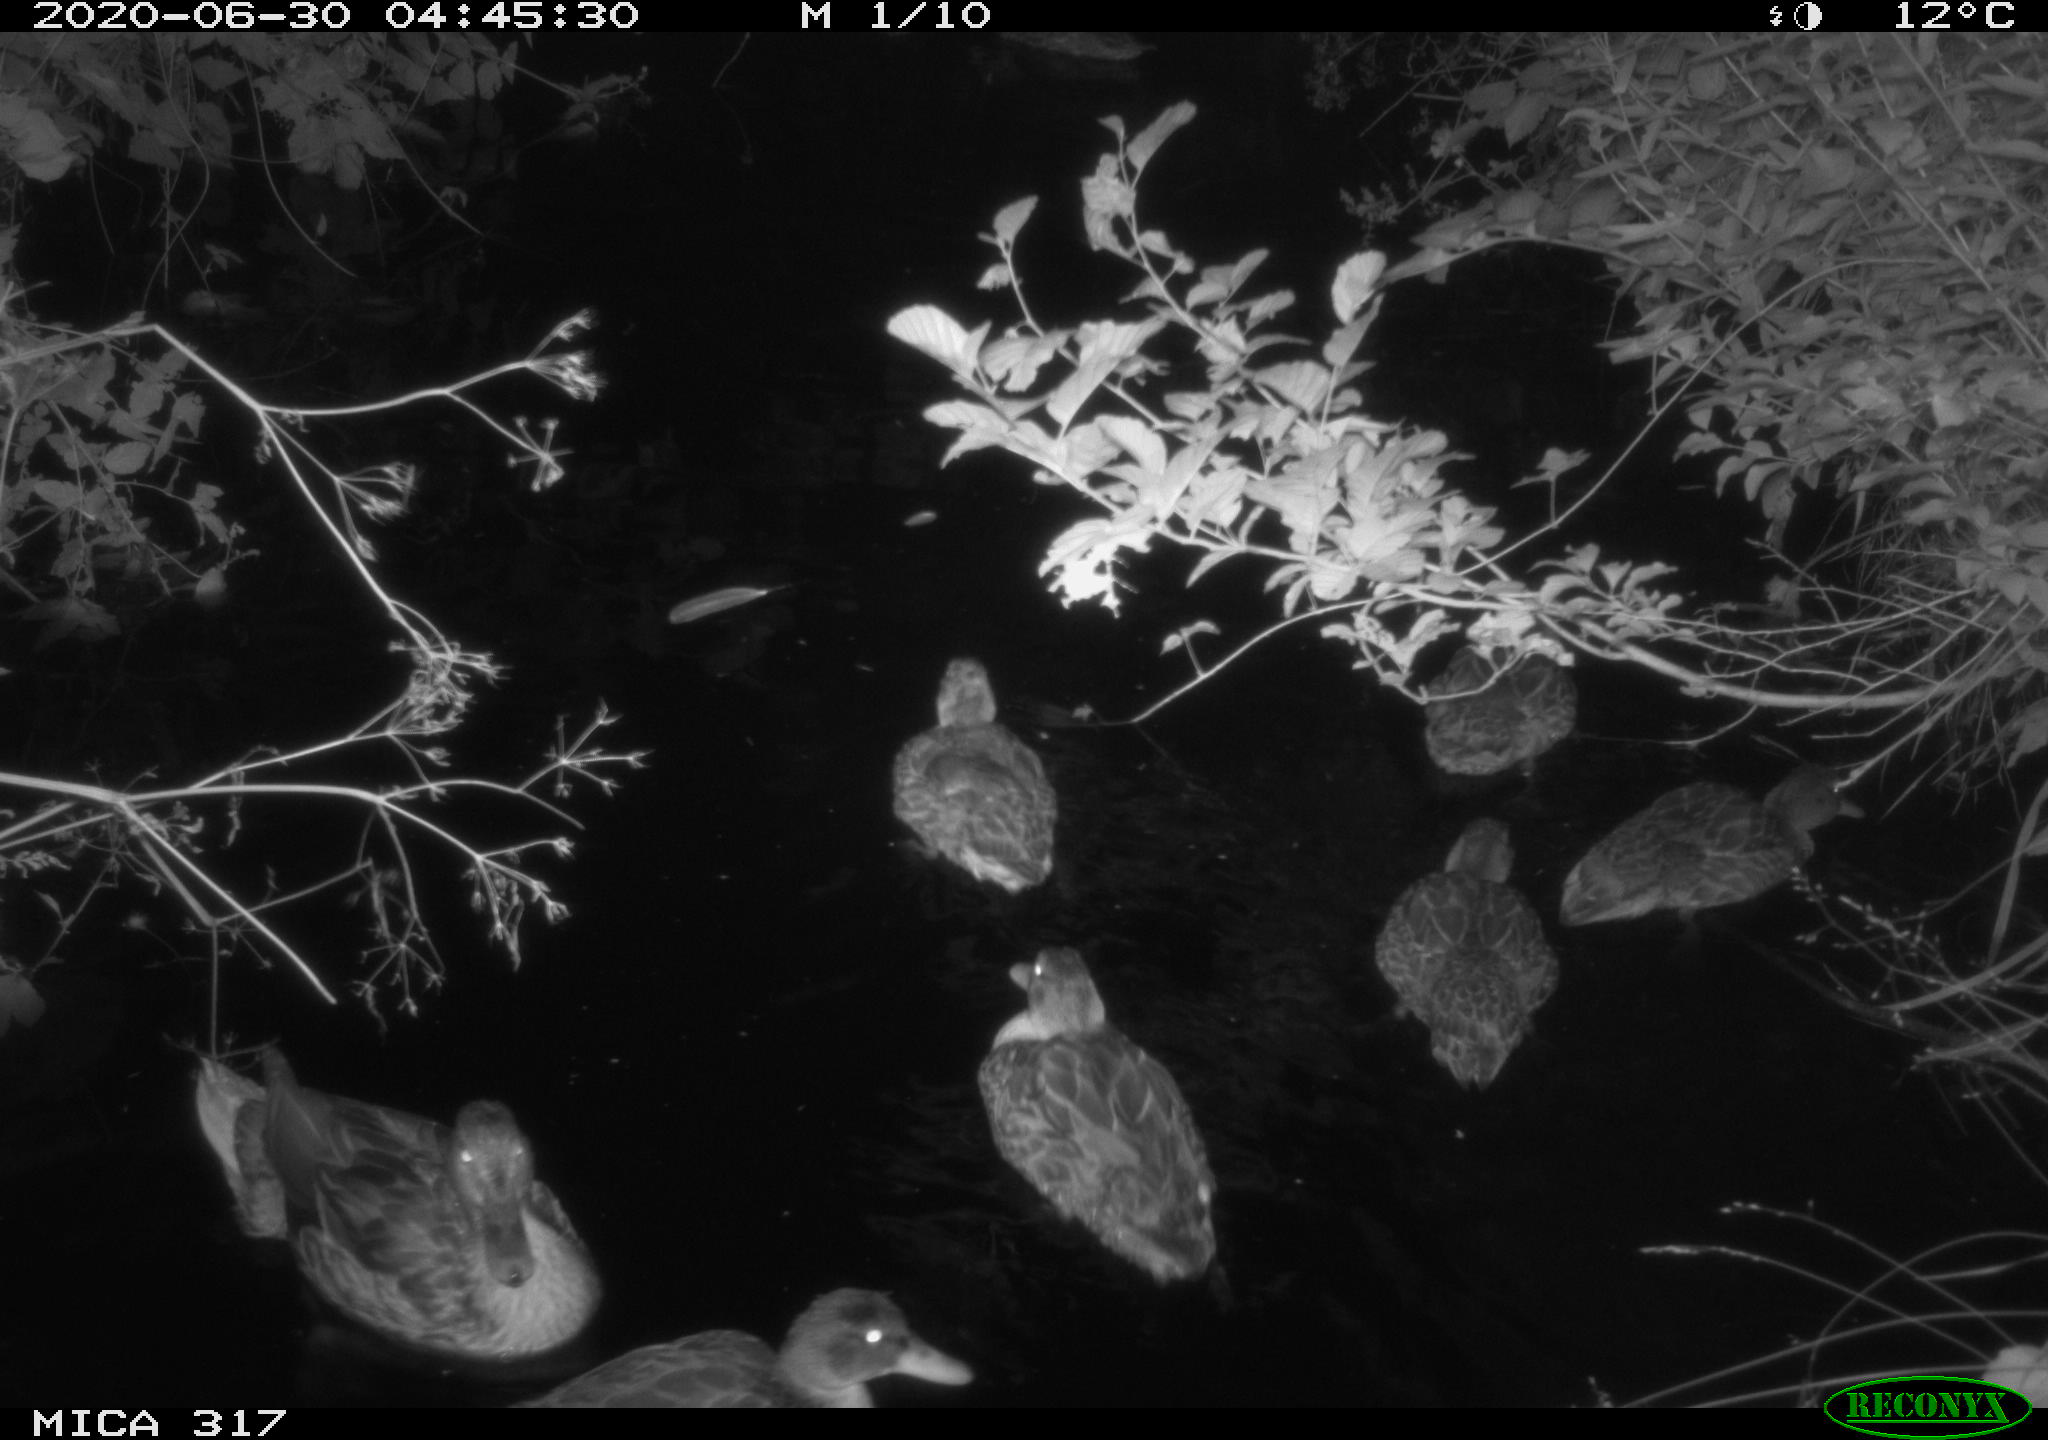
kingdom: Animalia
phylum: Chordata
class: Aves
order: Anseriformes
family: Anatidae
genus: Anas
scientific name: Anas platyrhynchos
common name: Mallard
